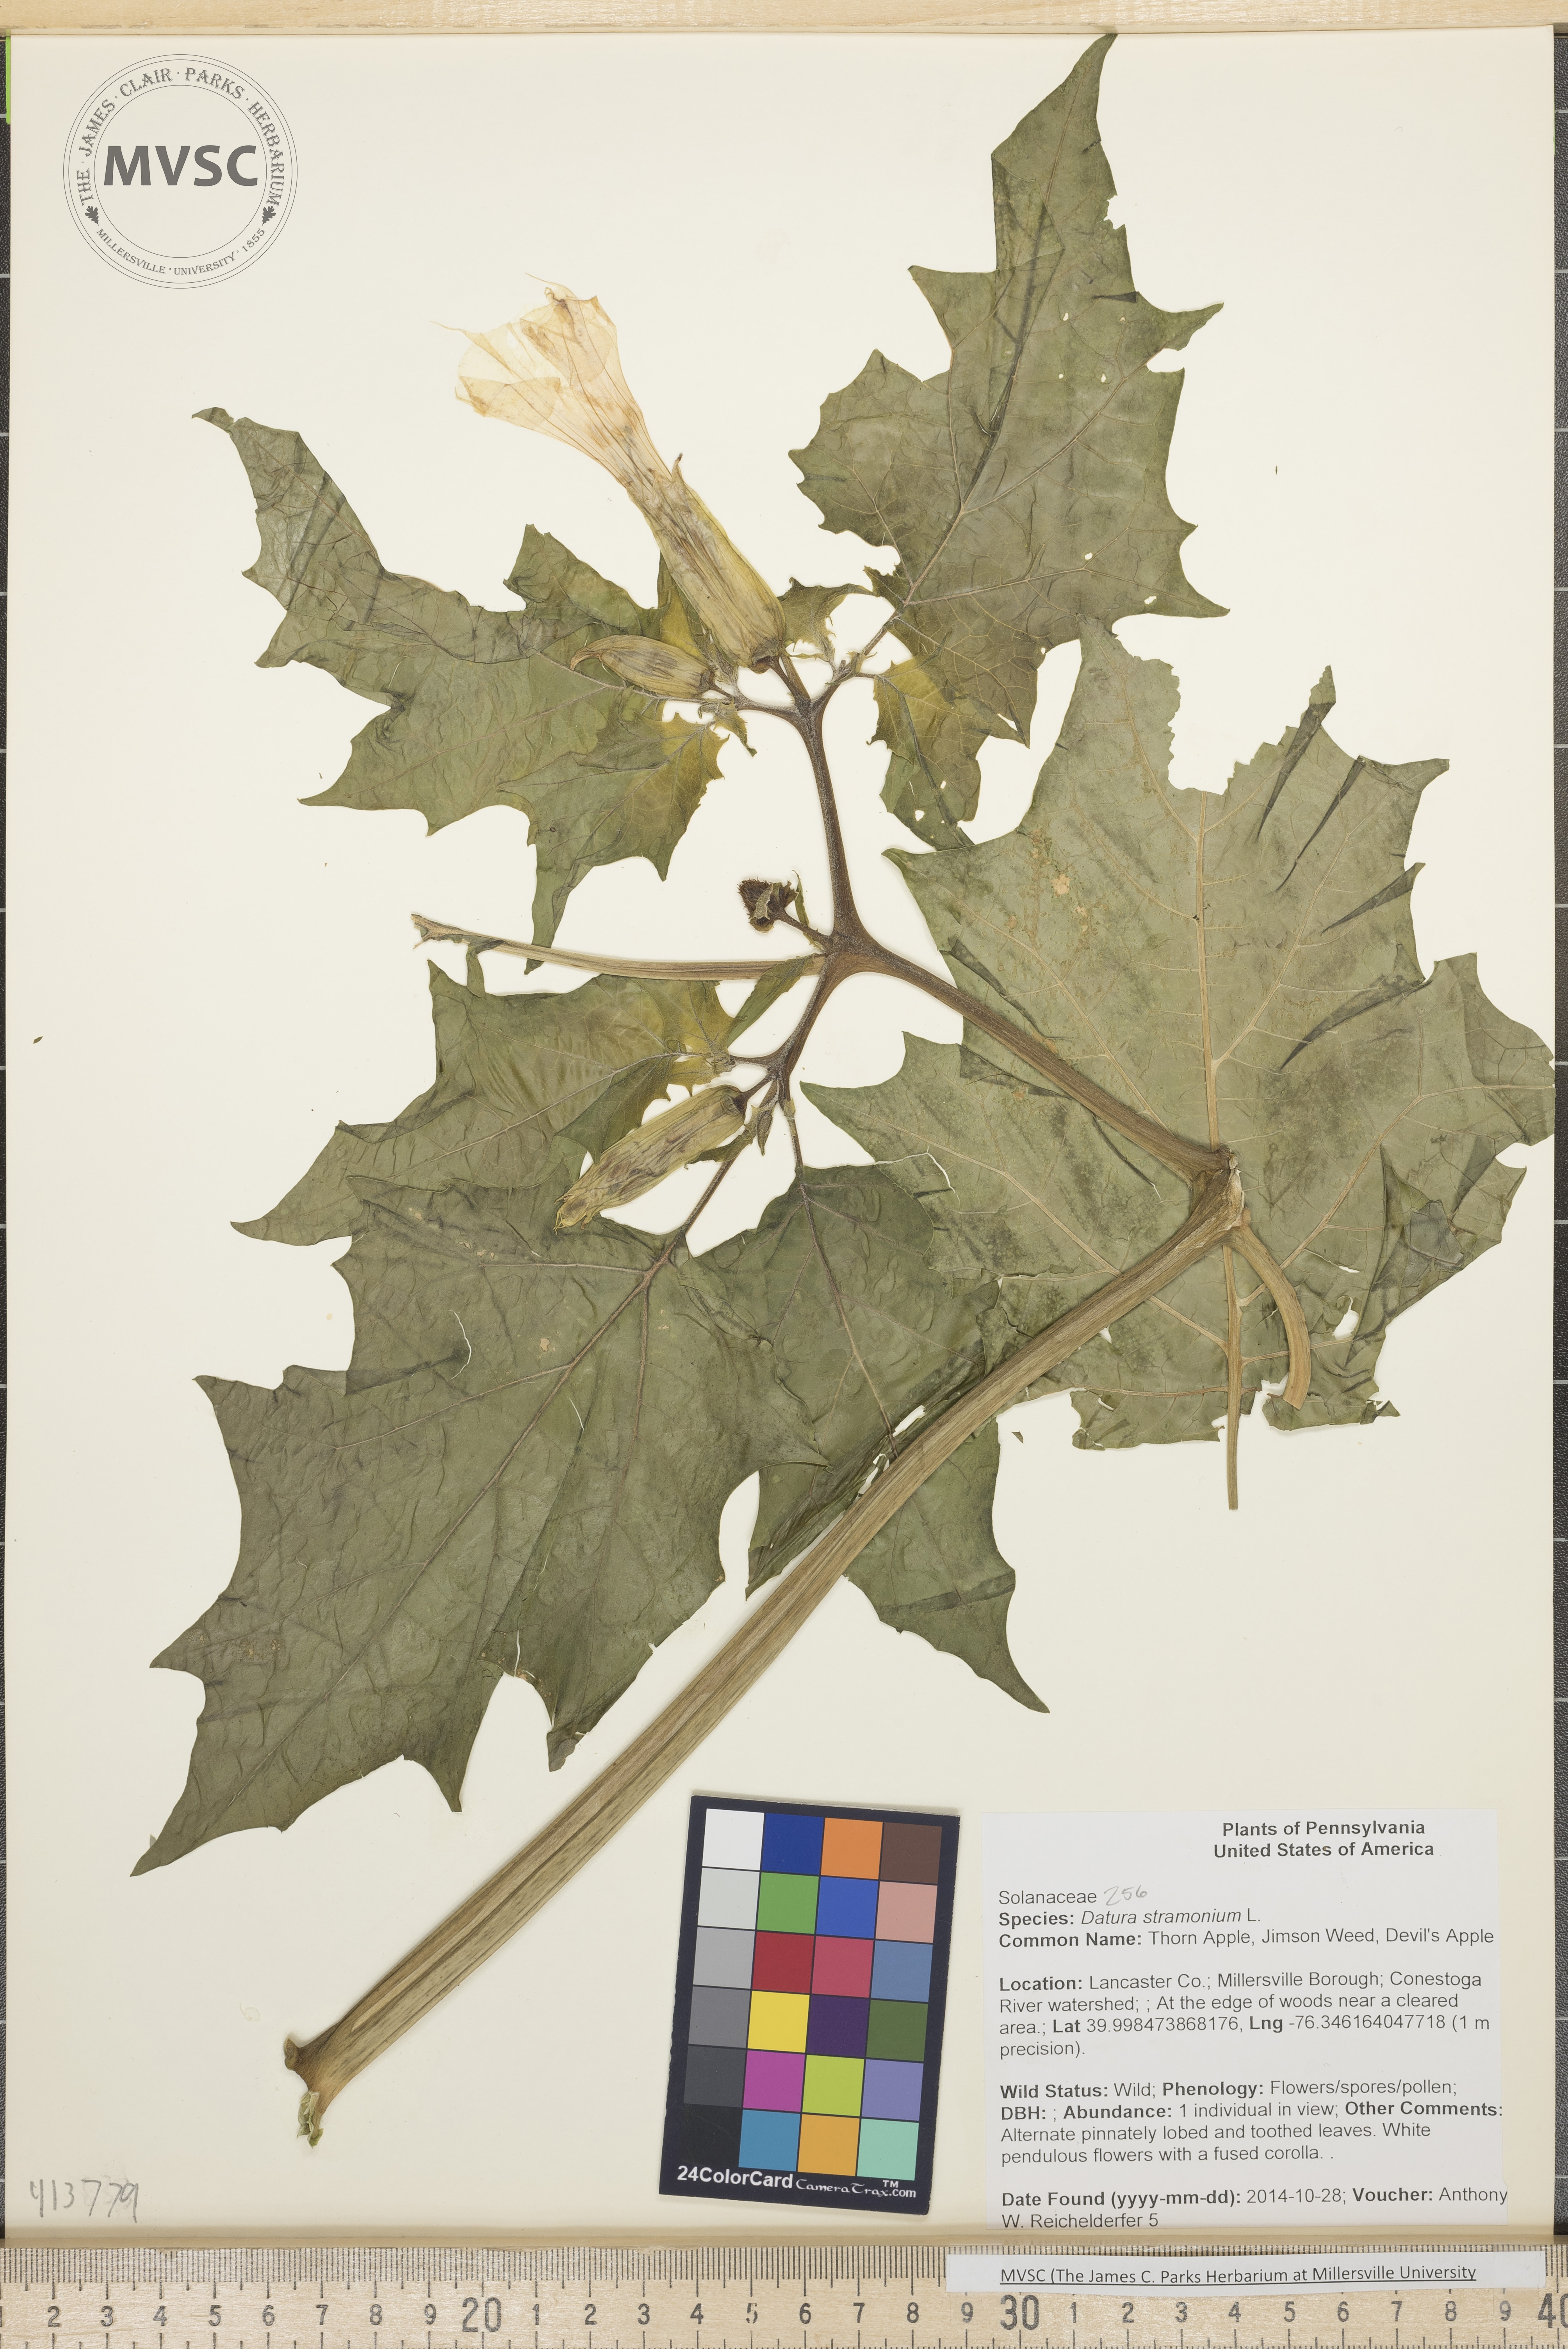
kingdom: Plantae
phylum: Tracheophyta
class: Magnoliopsida
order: Solanales
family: Solanaceae
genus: Datura
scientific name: Datura stramonium
